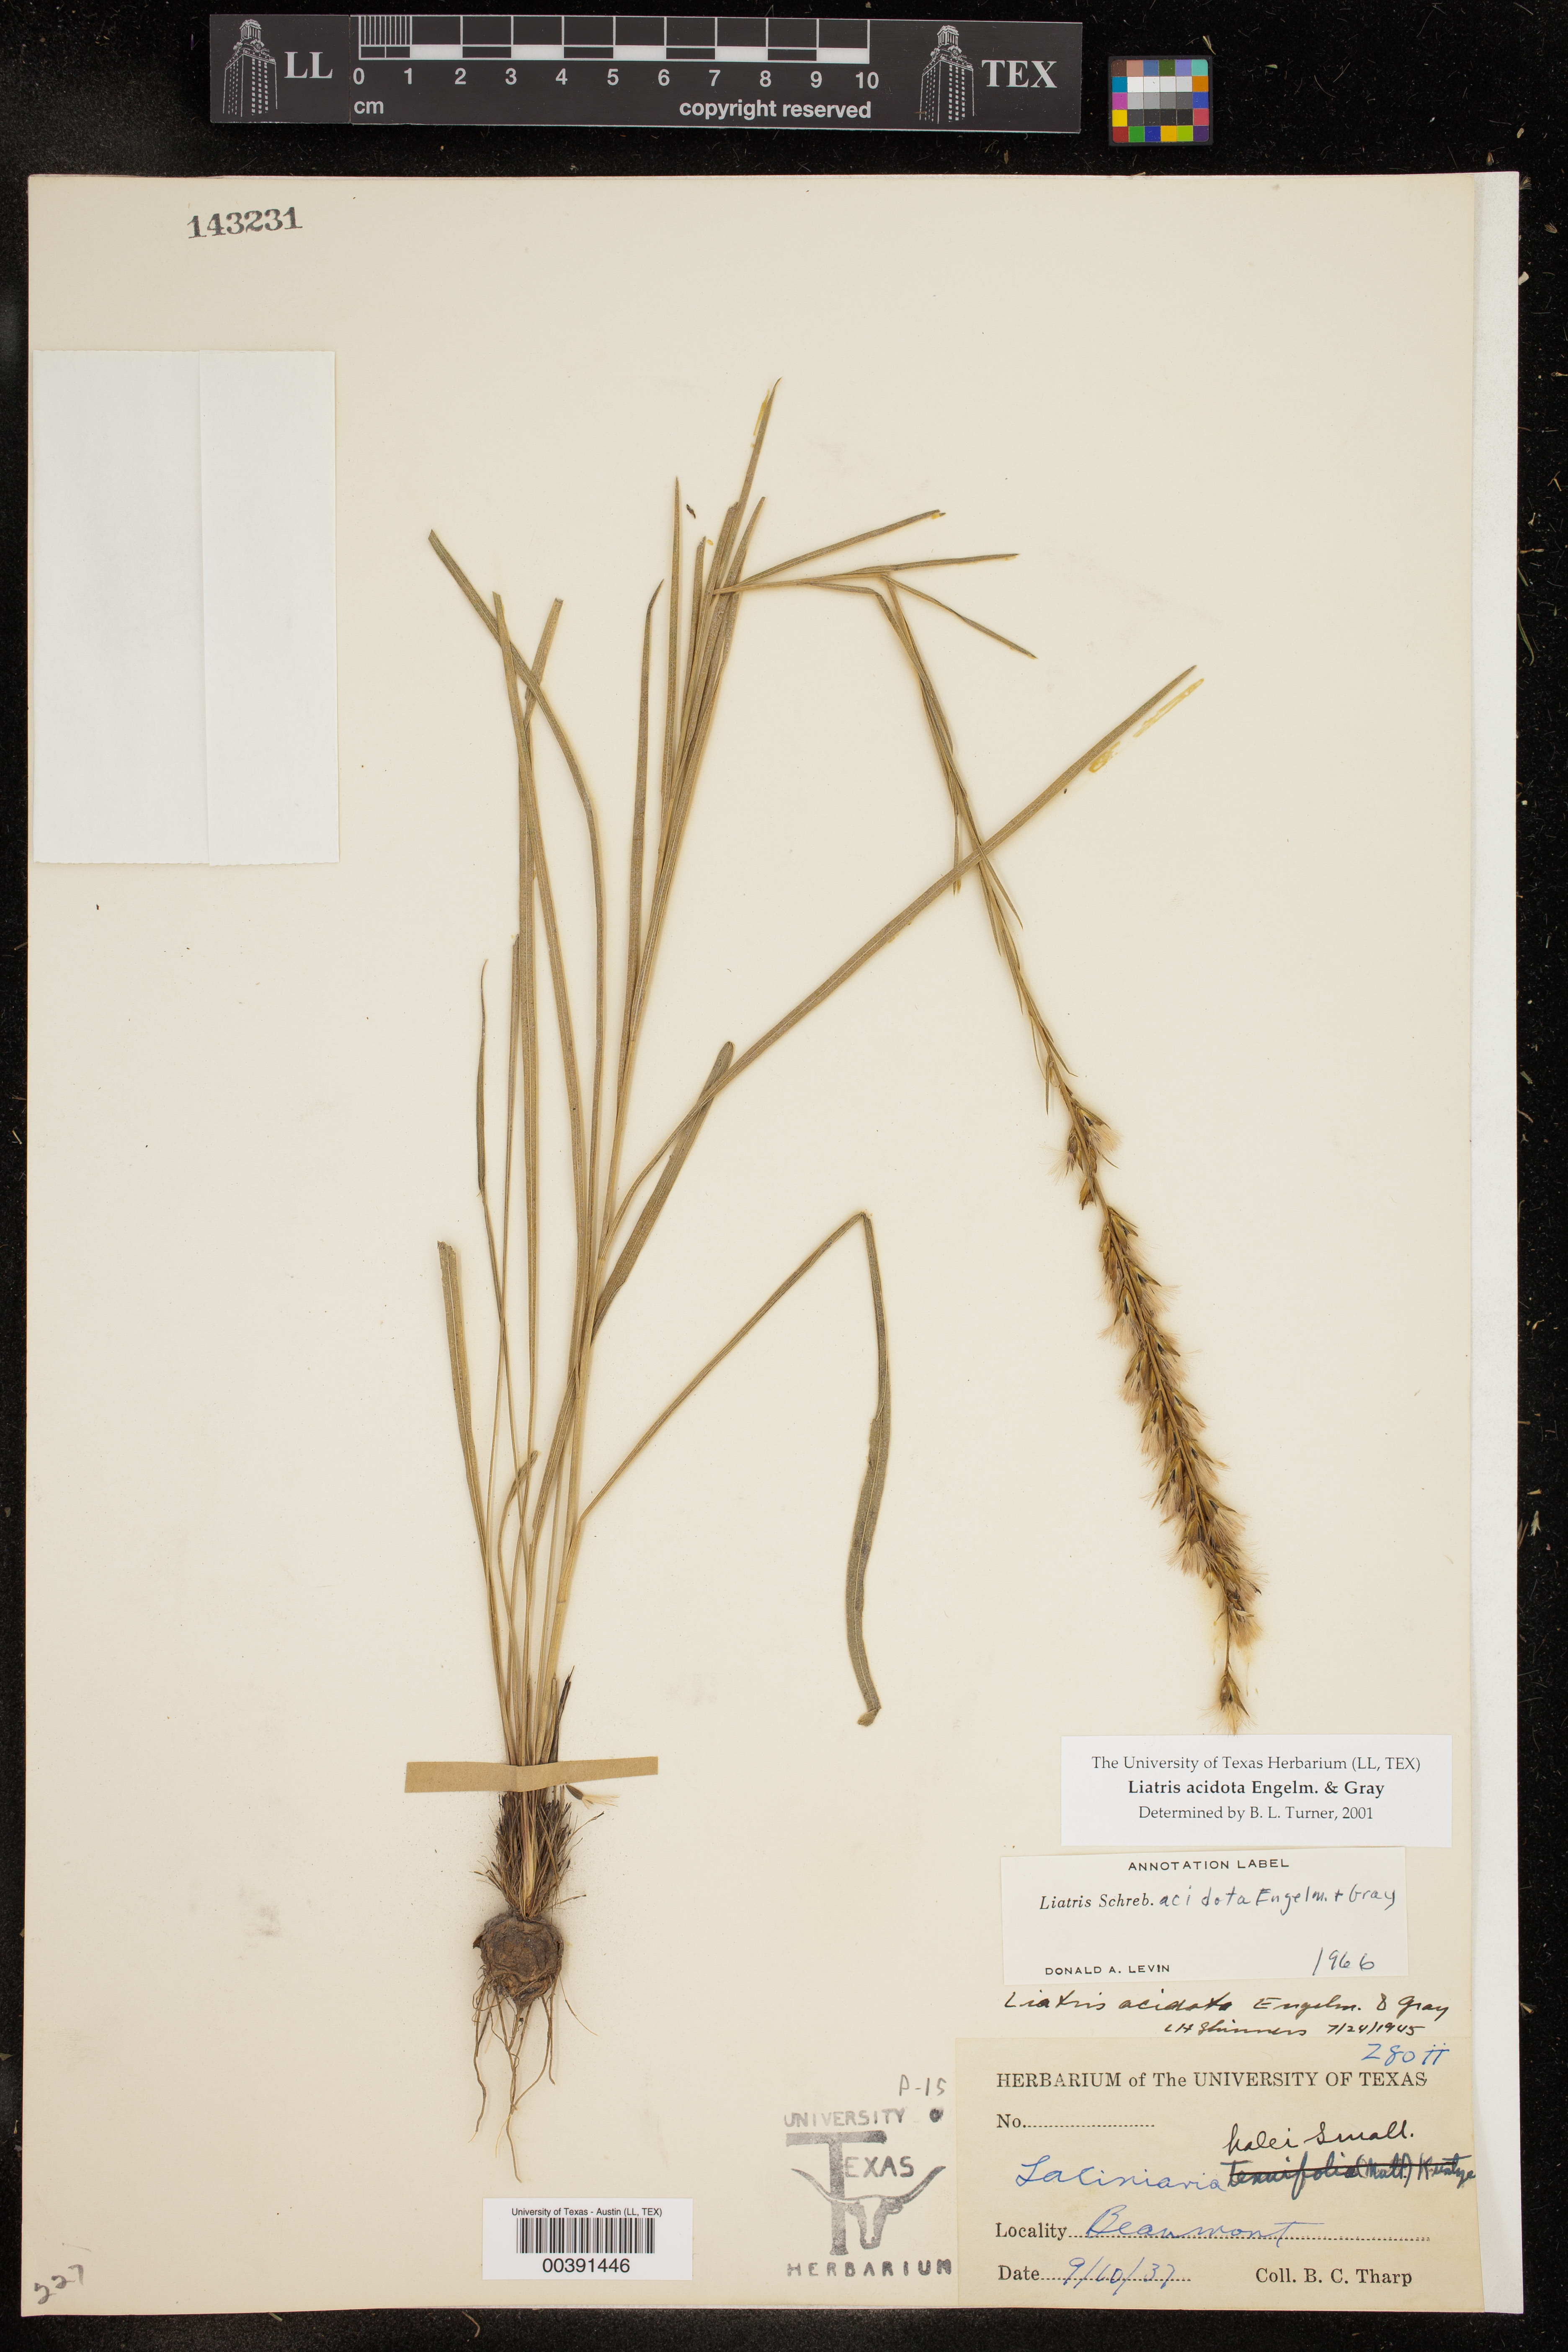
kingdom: Plantae
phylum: Tracheophyta
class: Magnoliopsida
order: Asterales
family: Asteraceae
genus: Liatris
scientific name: Liatris acidota
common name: Gulf coast gayfeather
